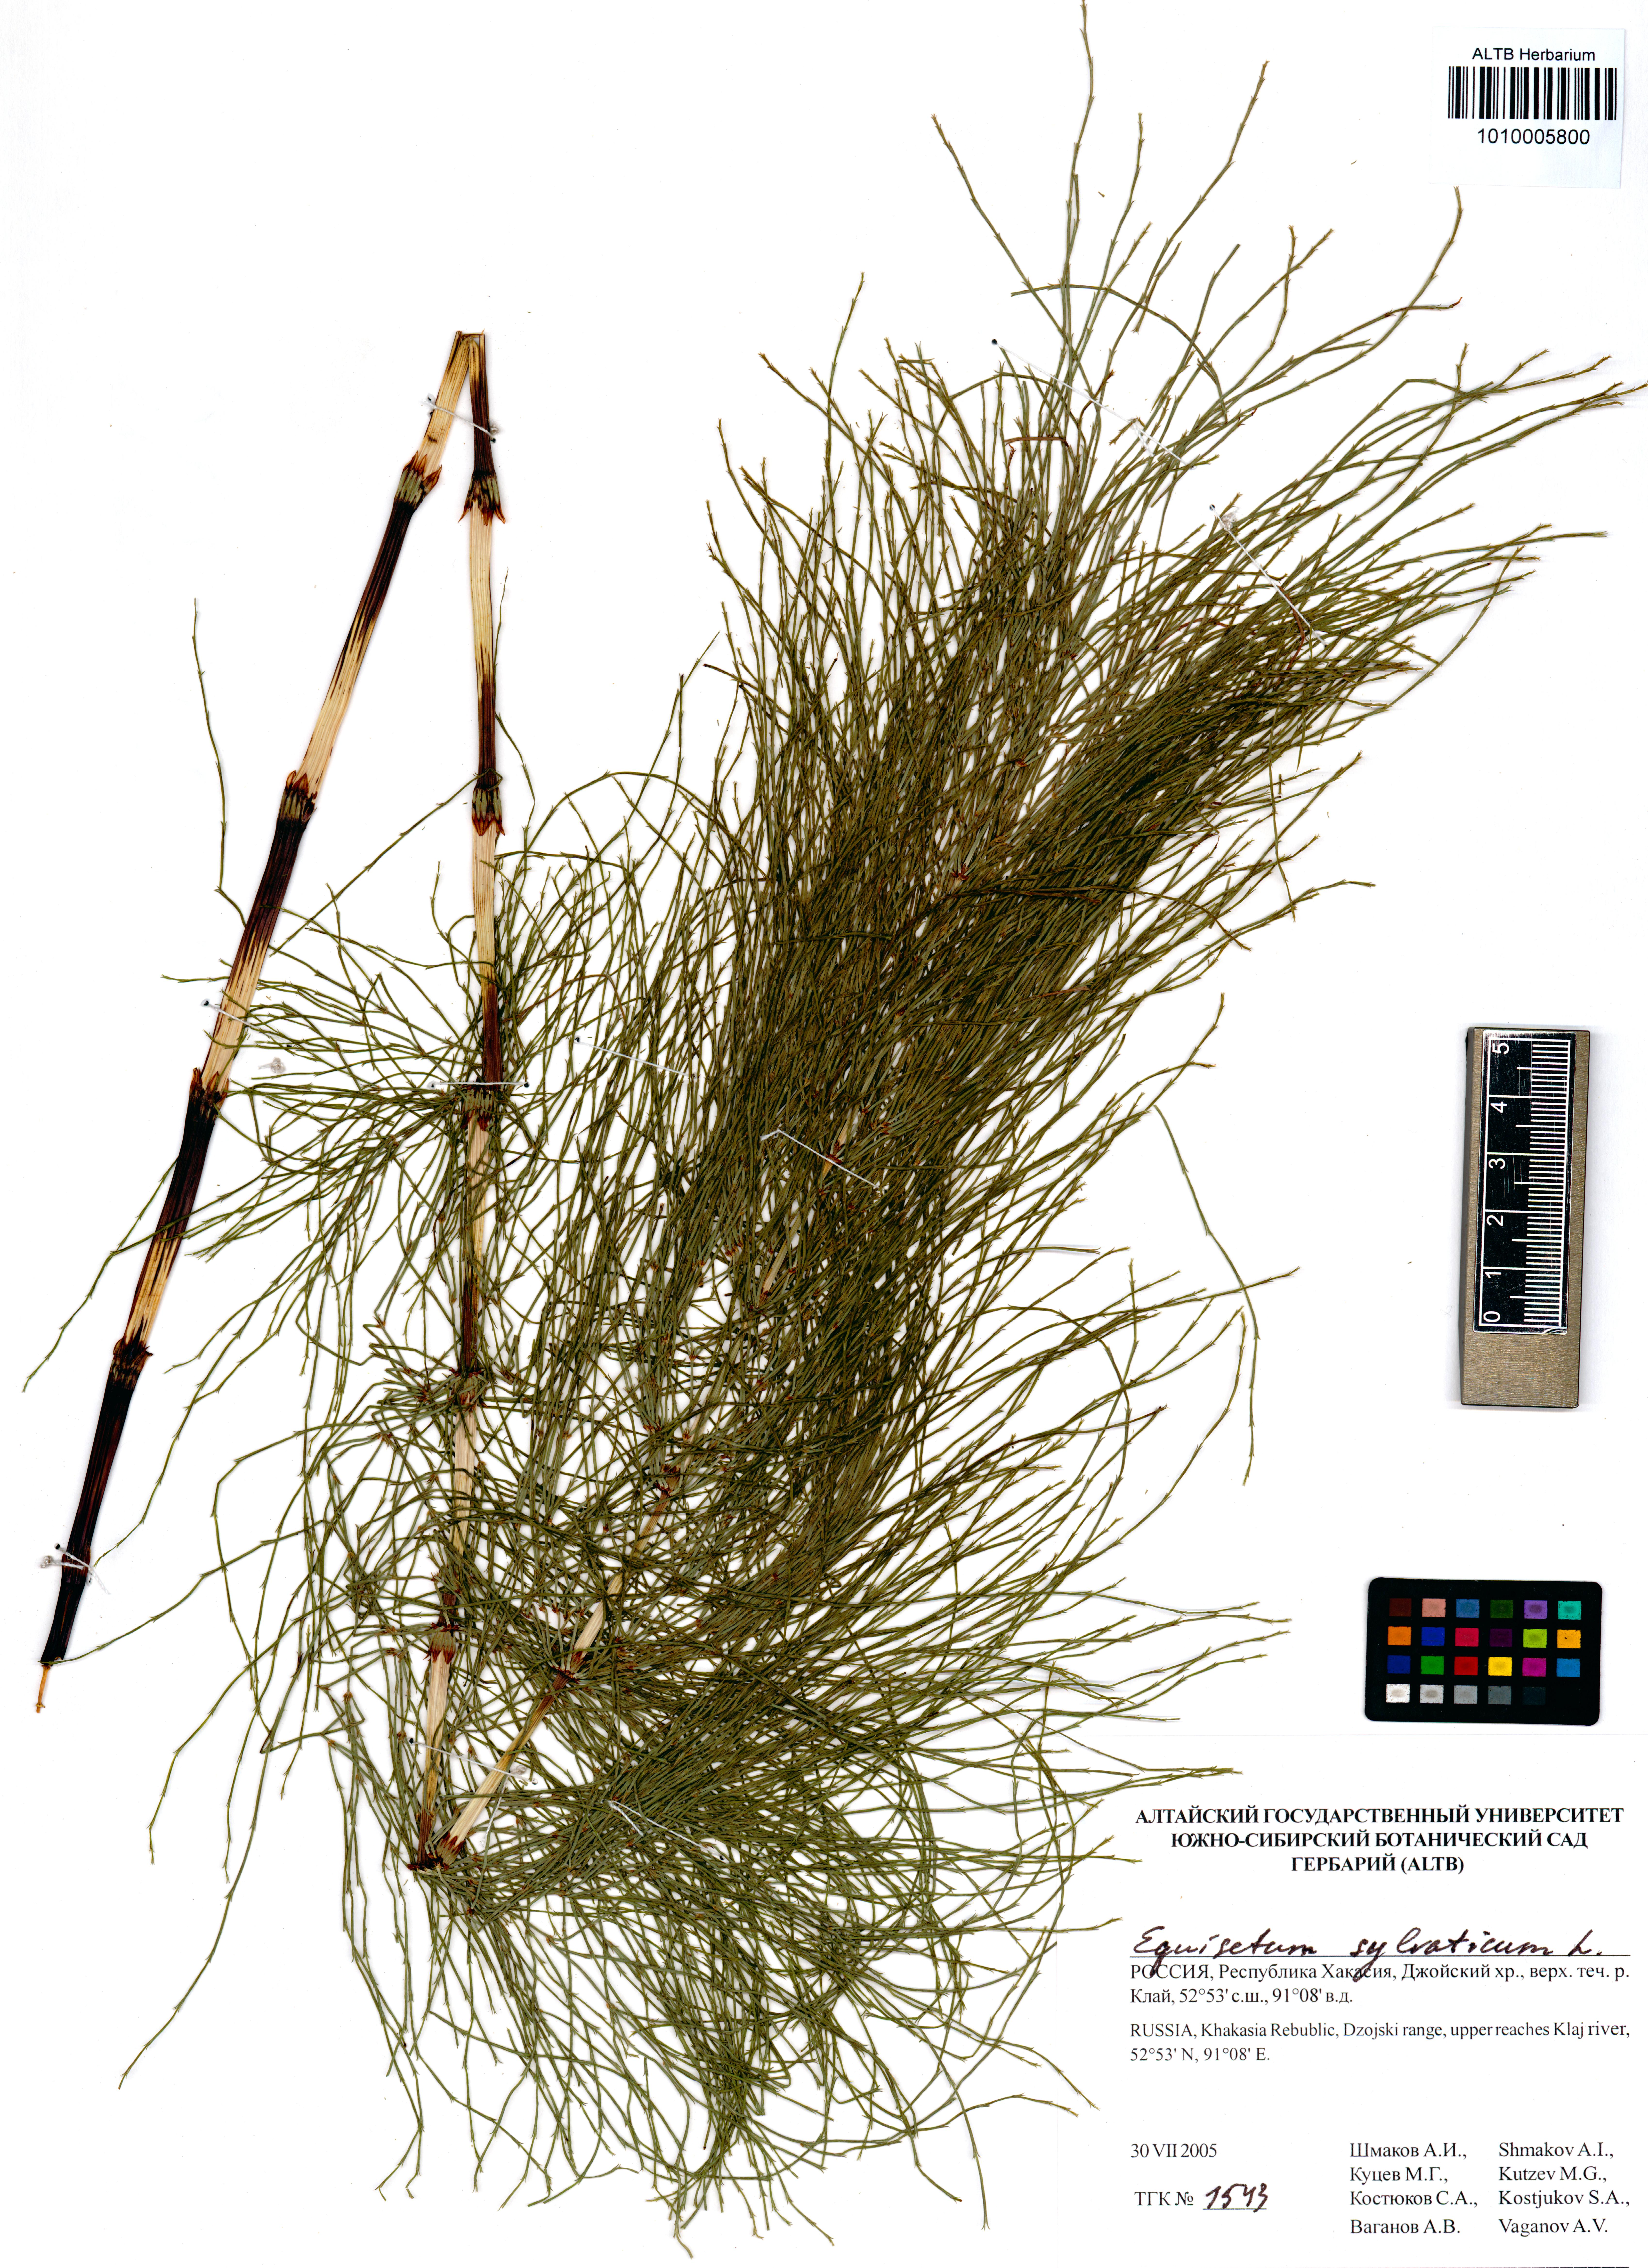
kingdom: Plantae
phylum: Tracheophyta
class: Polypodiopsida
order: Equisetales
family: Equisetaceae
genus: Equisetum
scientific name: Equisetum sylvaticum
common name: Wood horsetail
